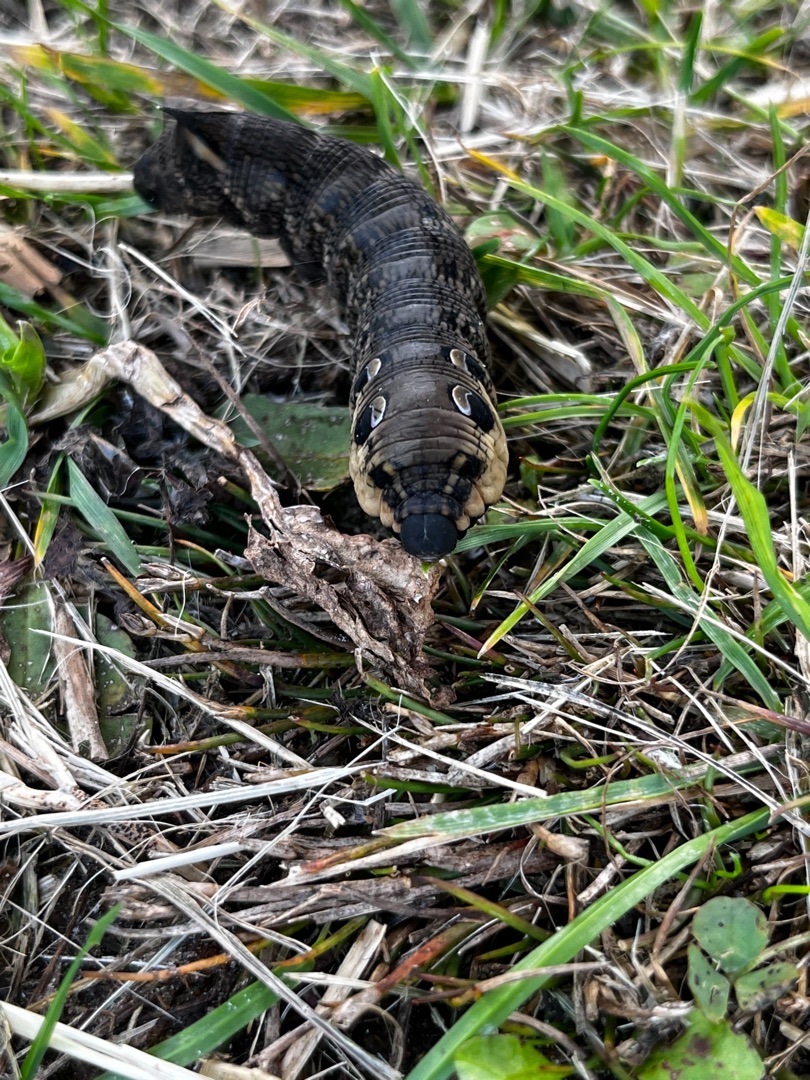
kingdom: Animalia
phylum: Arthropoda
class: Insecta
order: Lepidoptera
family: Sphingidae
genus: Deilephila
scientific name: Deilephila elpenor
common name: Dueurtsværmer
